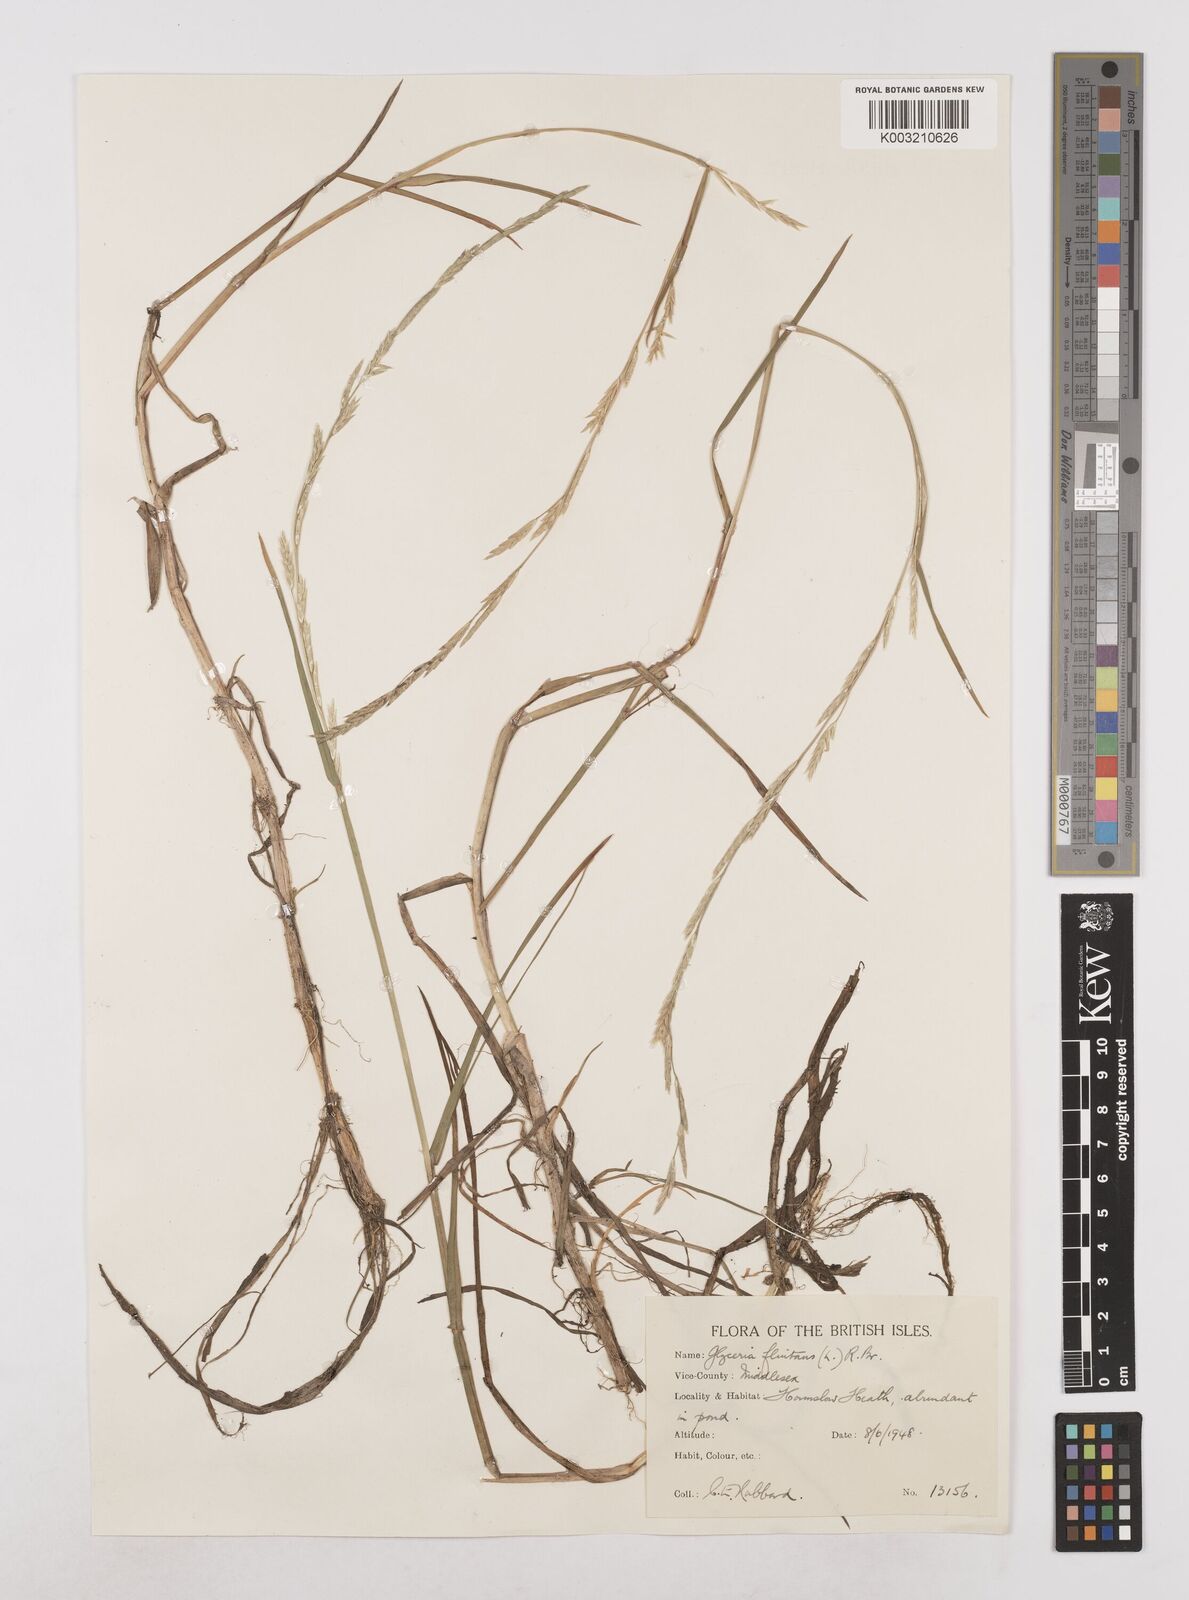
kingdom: Plantae
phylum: Tracheophyta
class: Liliopsida
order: Poales
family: Poaceae
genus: Glyceria
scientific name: Glyceria fluitans
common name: Floating sweet-grass
